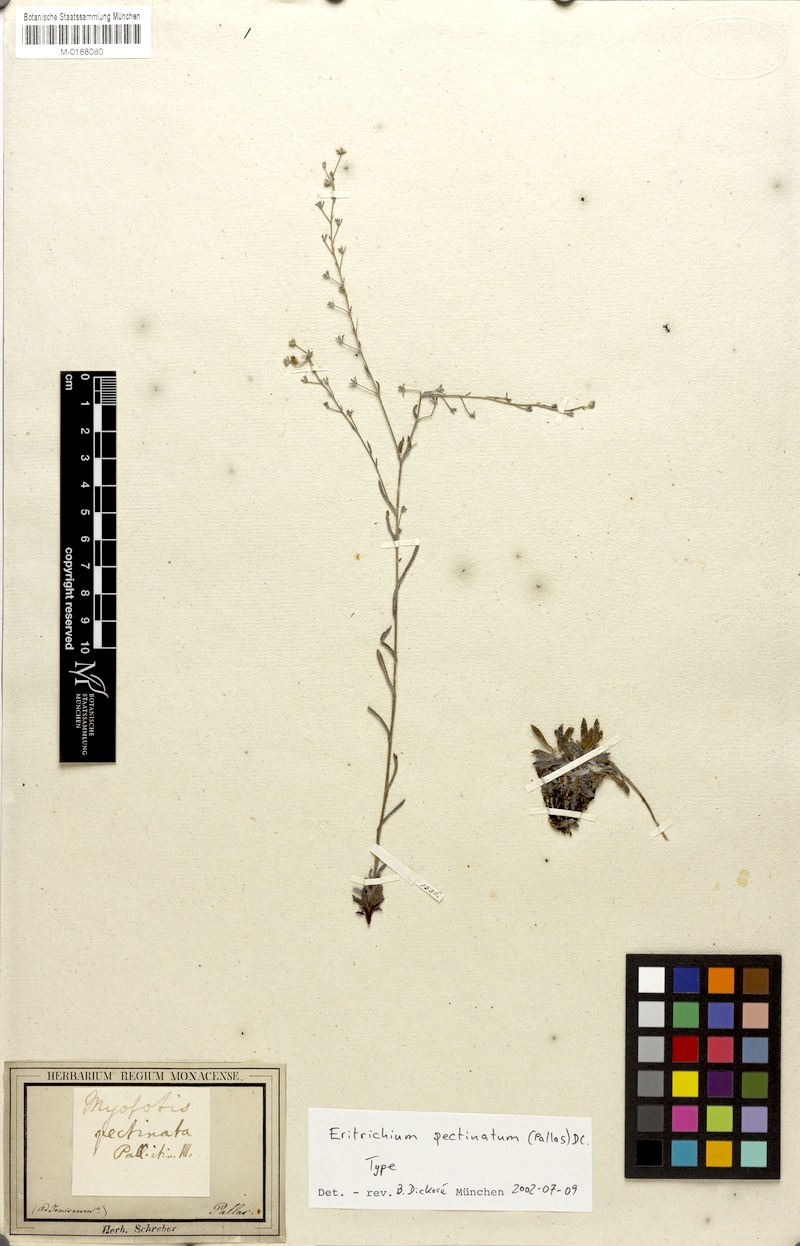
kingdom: Plantae
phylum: Tracheophyta
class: Magnoliopsida
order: Boraginales
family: Boraginaceae
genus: Eritrichium
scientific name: Eritrichium pectinatum
